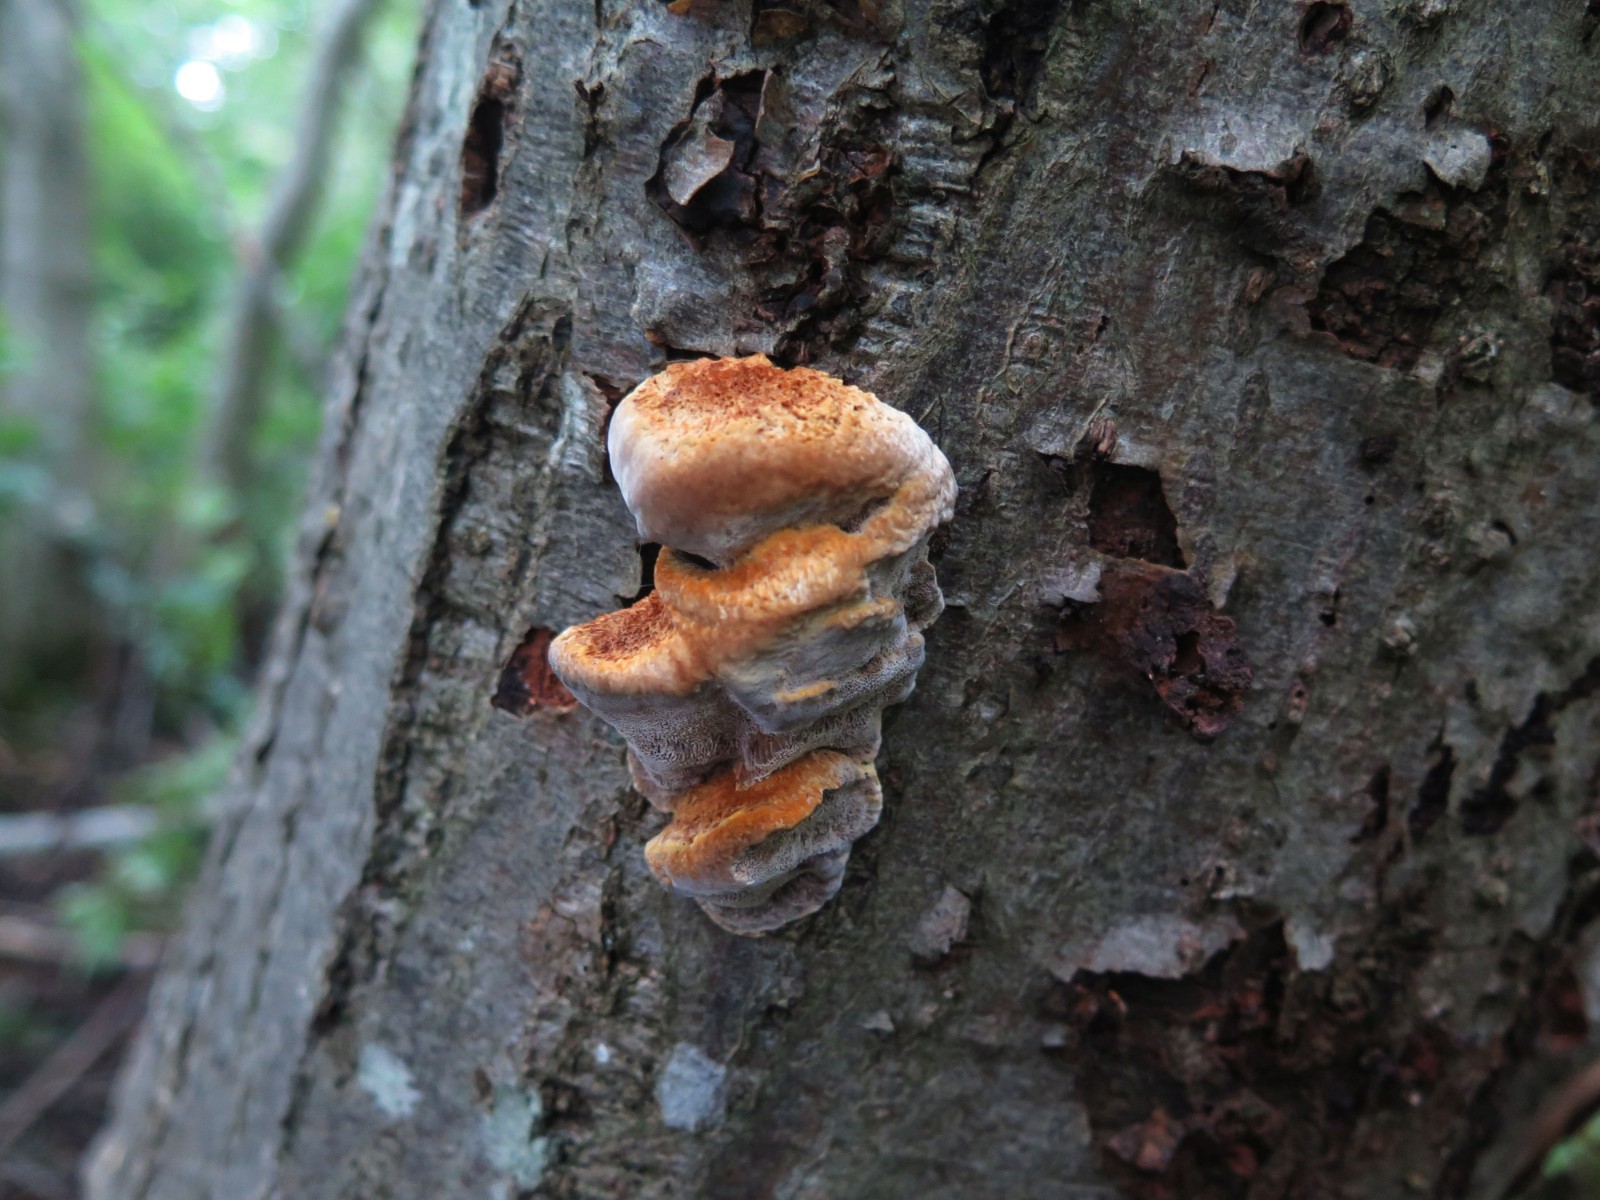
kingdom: Fungi
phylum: Basidiomycota
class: Agaricomycetes
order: Hymenochaetales
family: Hymenochaetaceae
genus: Xanthoporia
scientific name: Xanthoporia radiata
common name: elle-spejlporesvamp
